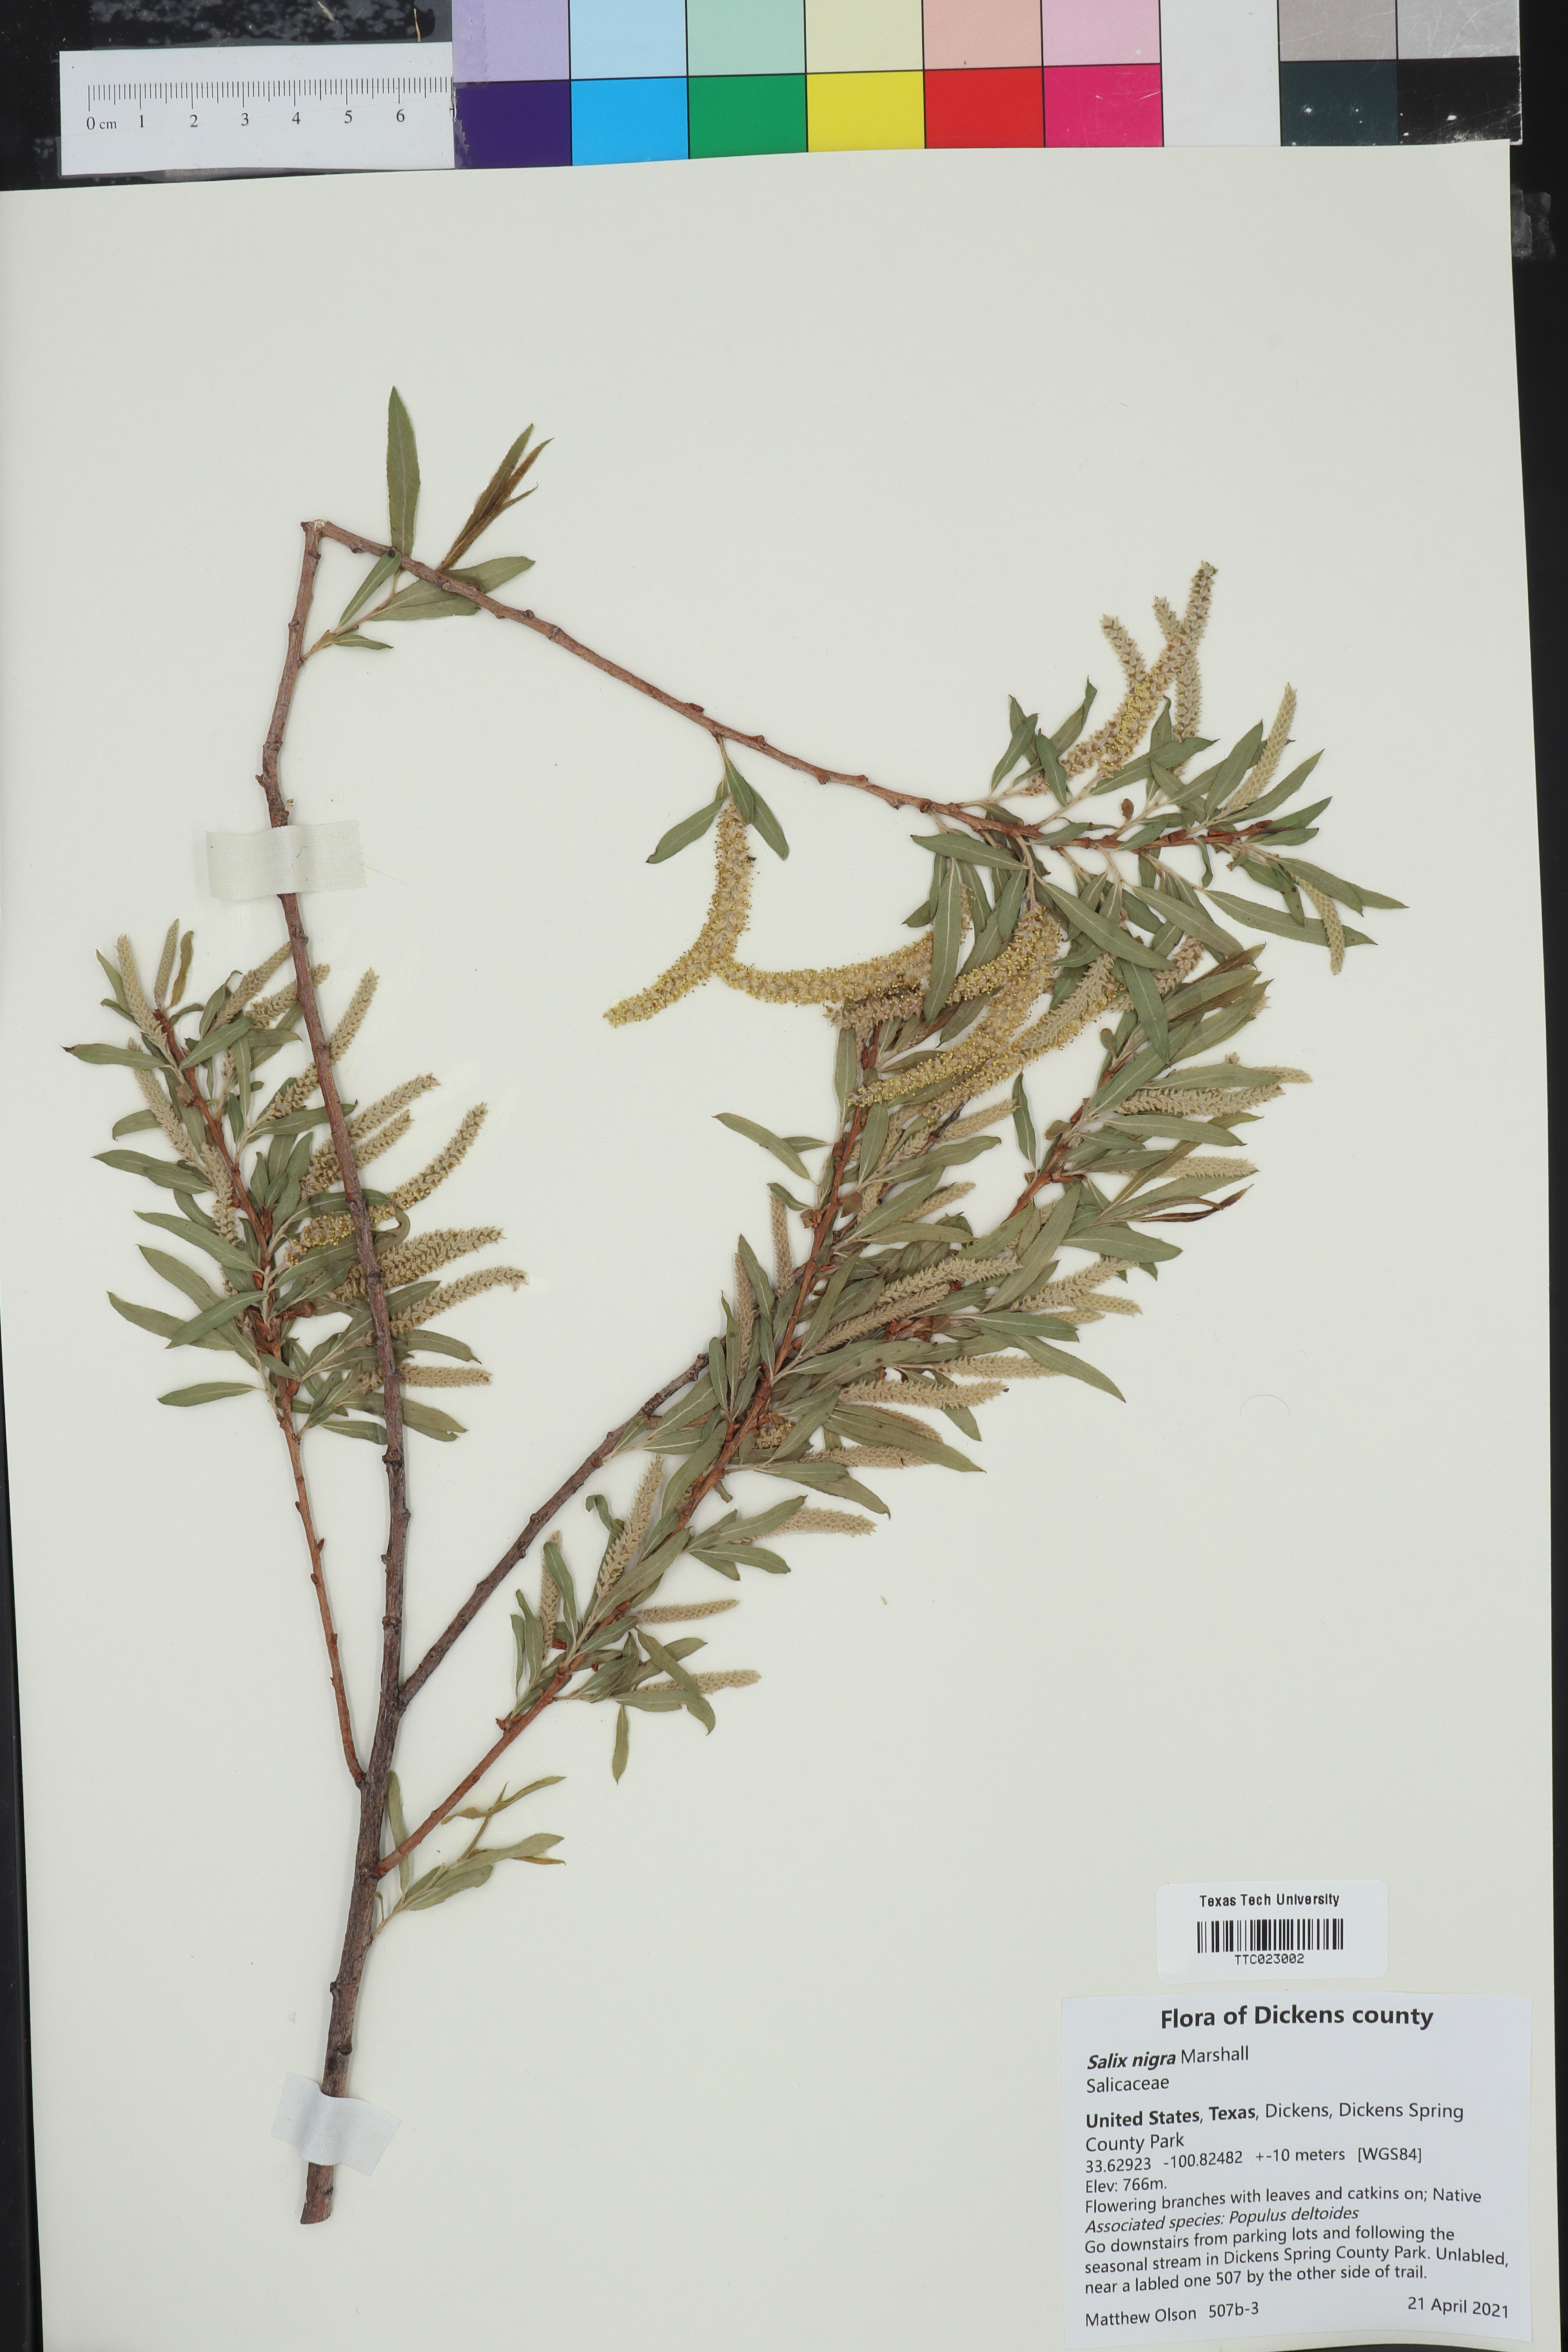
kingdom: Plantae
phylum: Tracheophyta
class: Magnoliopsida
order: Malpighiales
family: Salicaceae
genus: Salix
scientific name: Salix nigra
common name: Black willow
